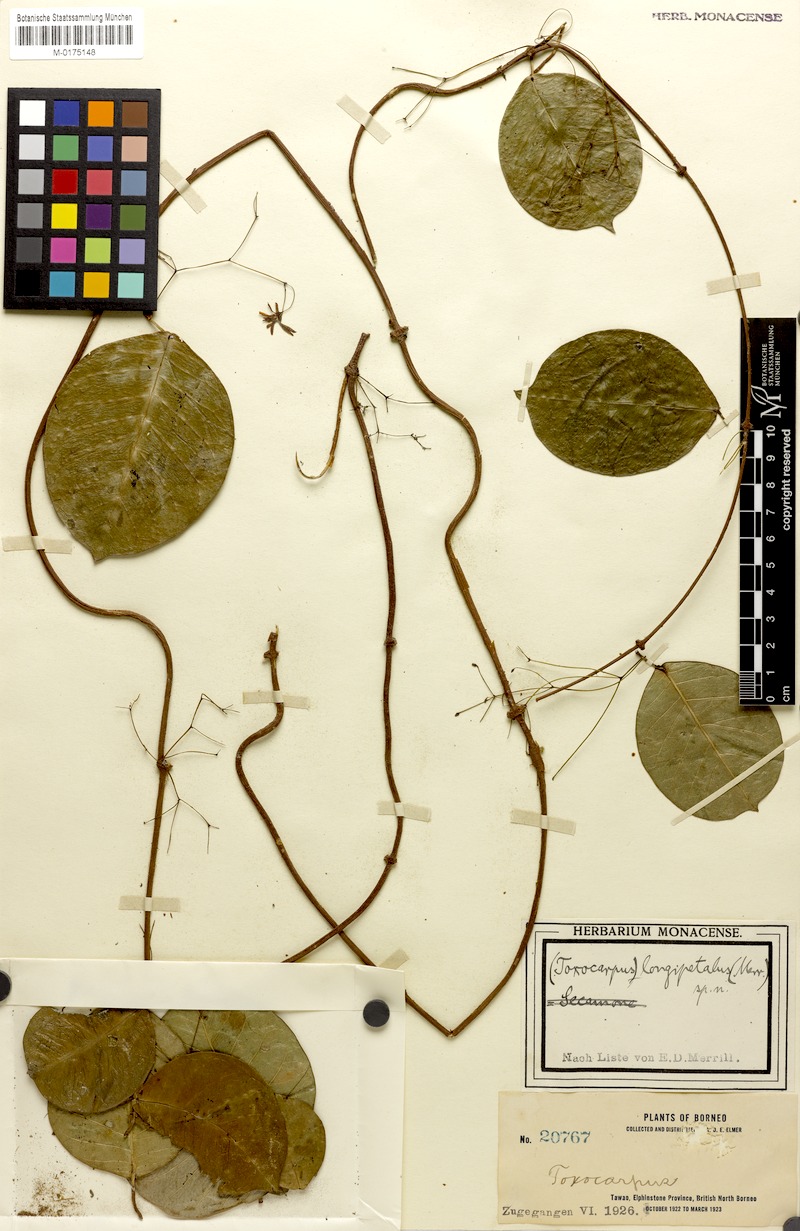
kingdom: Plantae
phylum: Tracheophyta
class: Magnoliopsida
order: Gentianales
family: Apocynaceae
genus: Secamone
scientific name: Secamone auriculata
